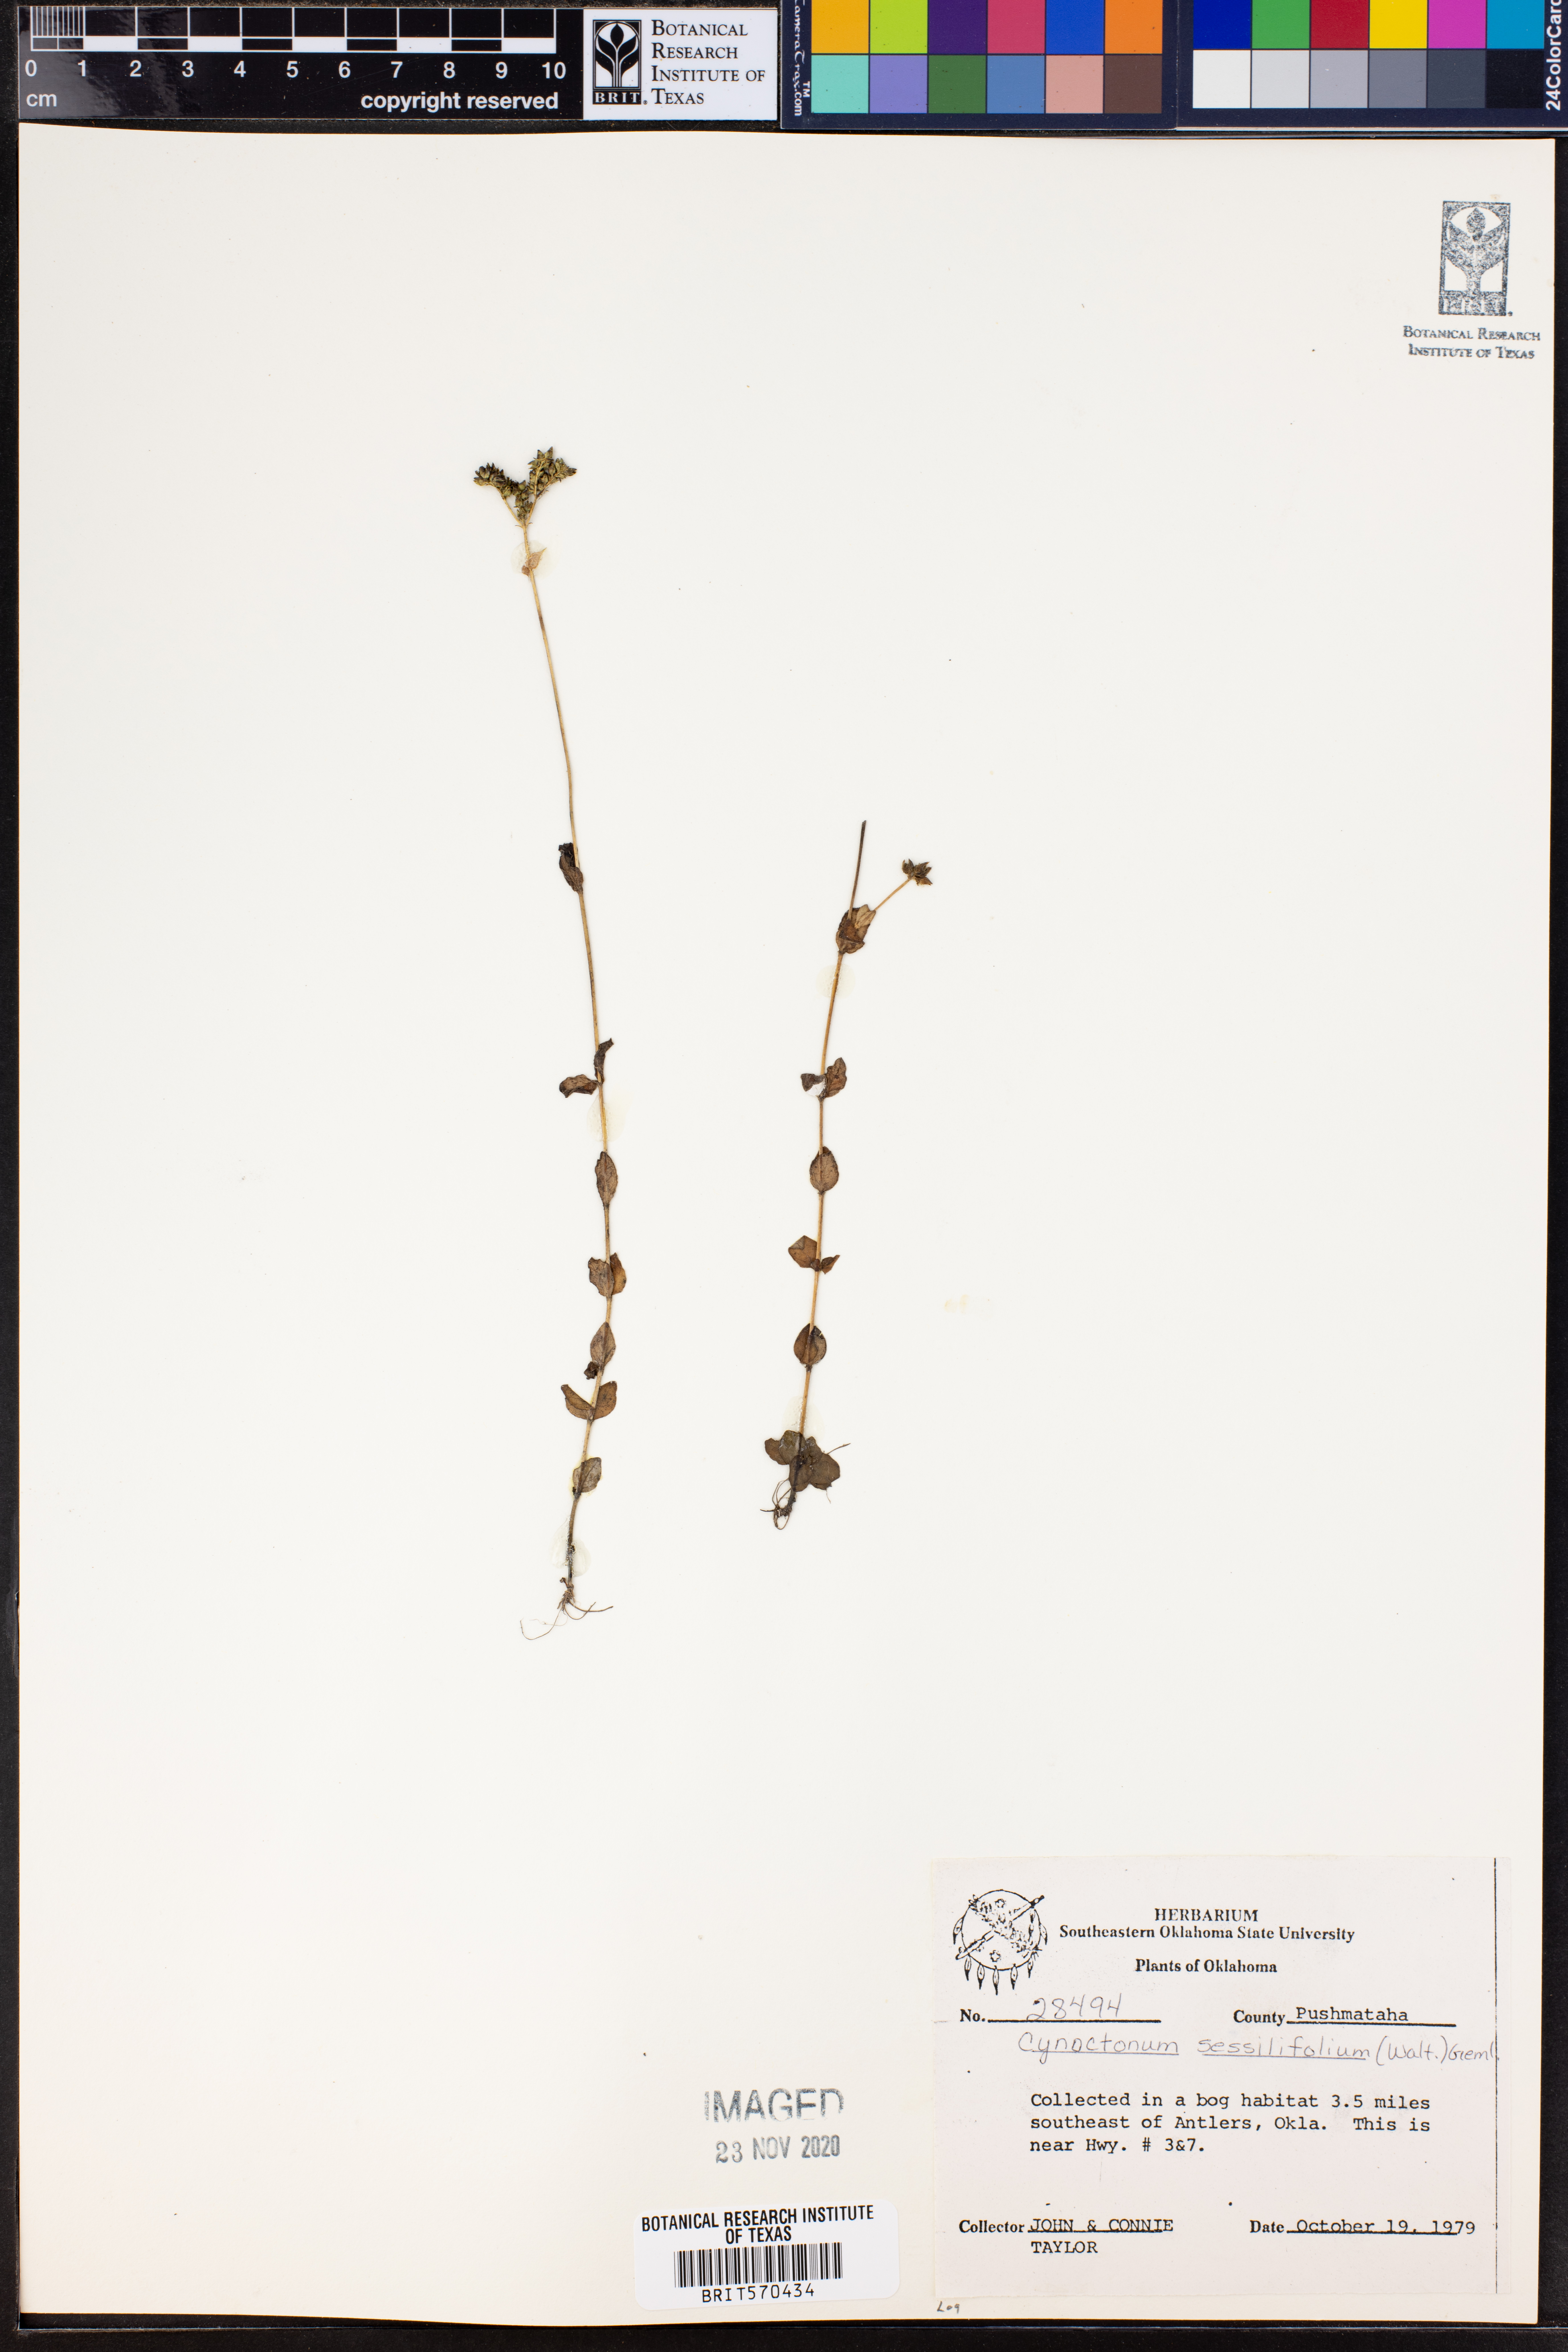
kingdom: Plantae
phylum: Tracheophyta
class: Magnoliopsida
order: Gentianales
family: Loganiaceae
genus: Mitreola
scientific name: Mitreola sessilifolia
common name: Swamp hornpod
